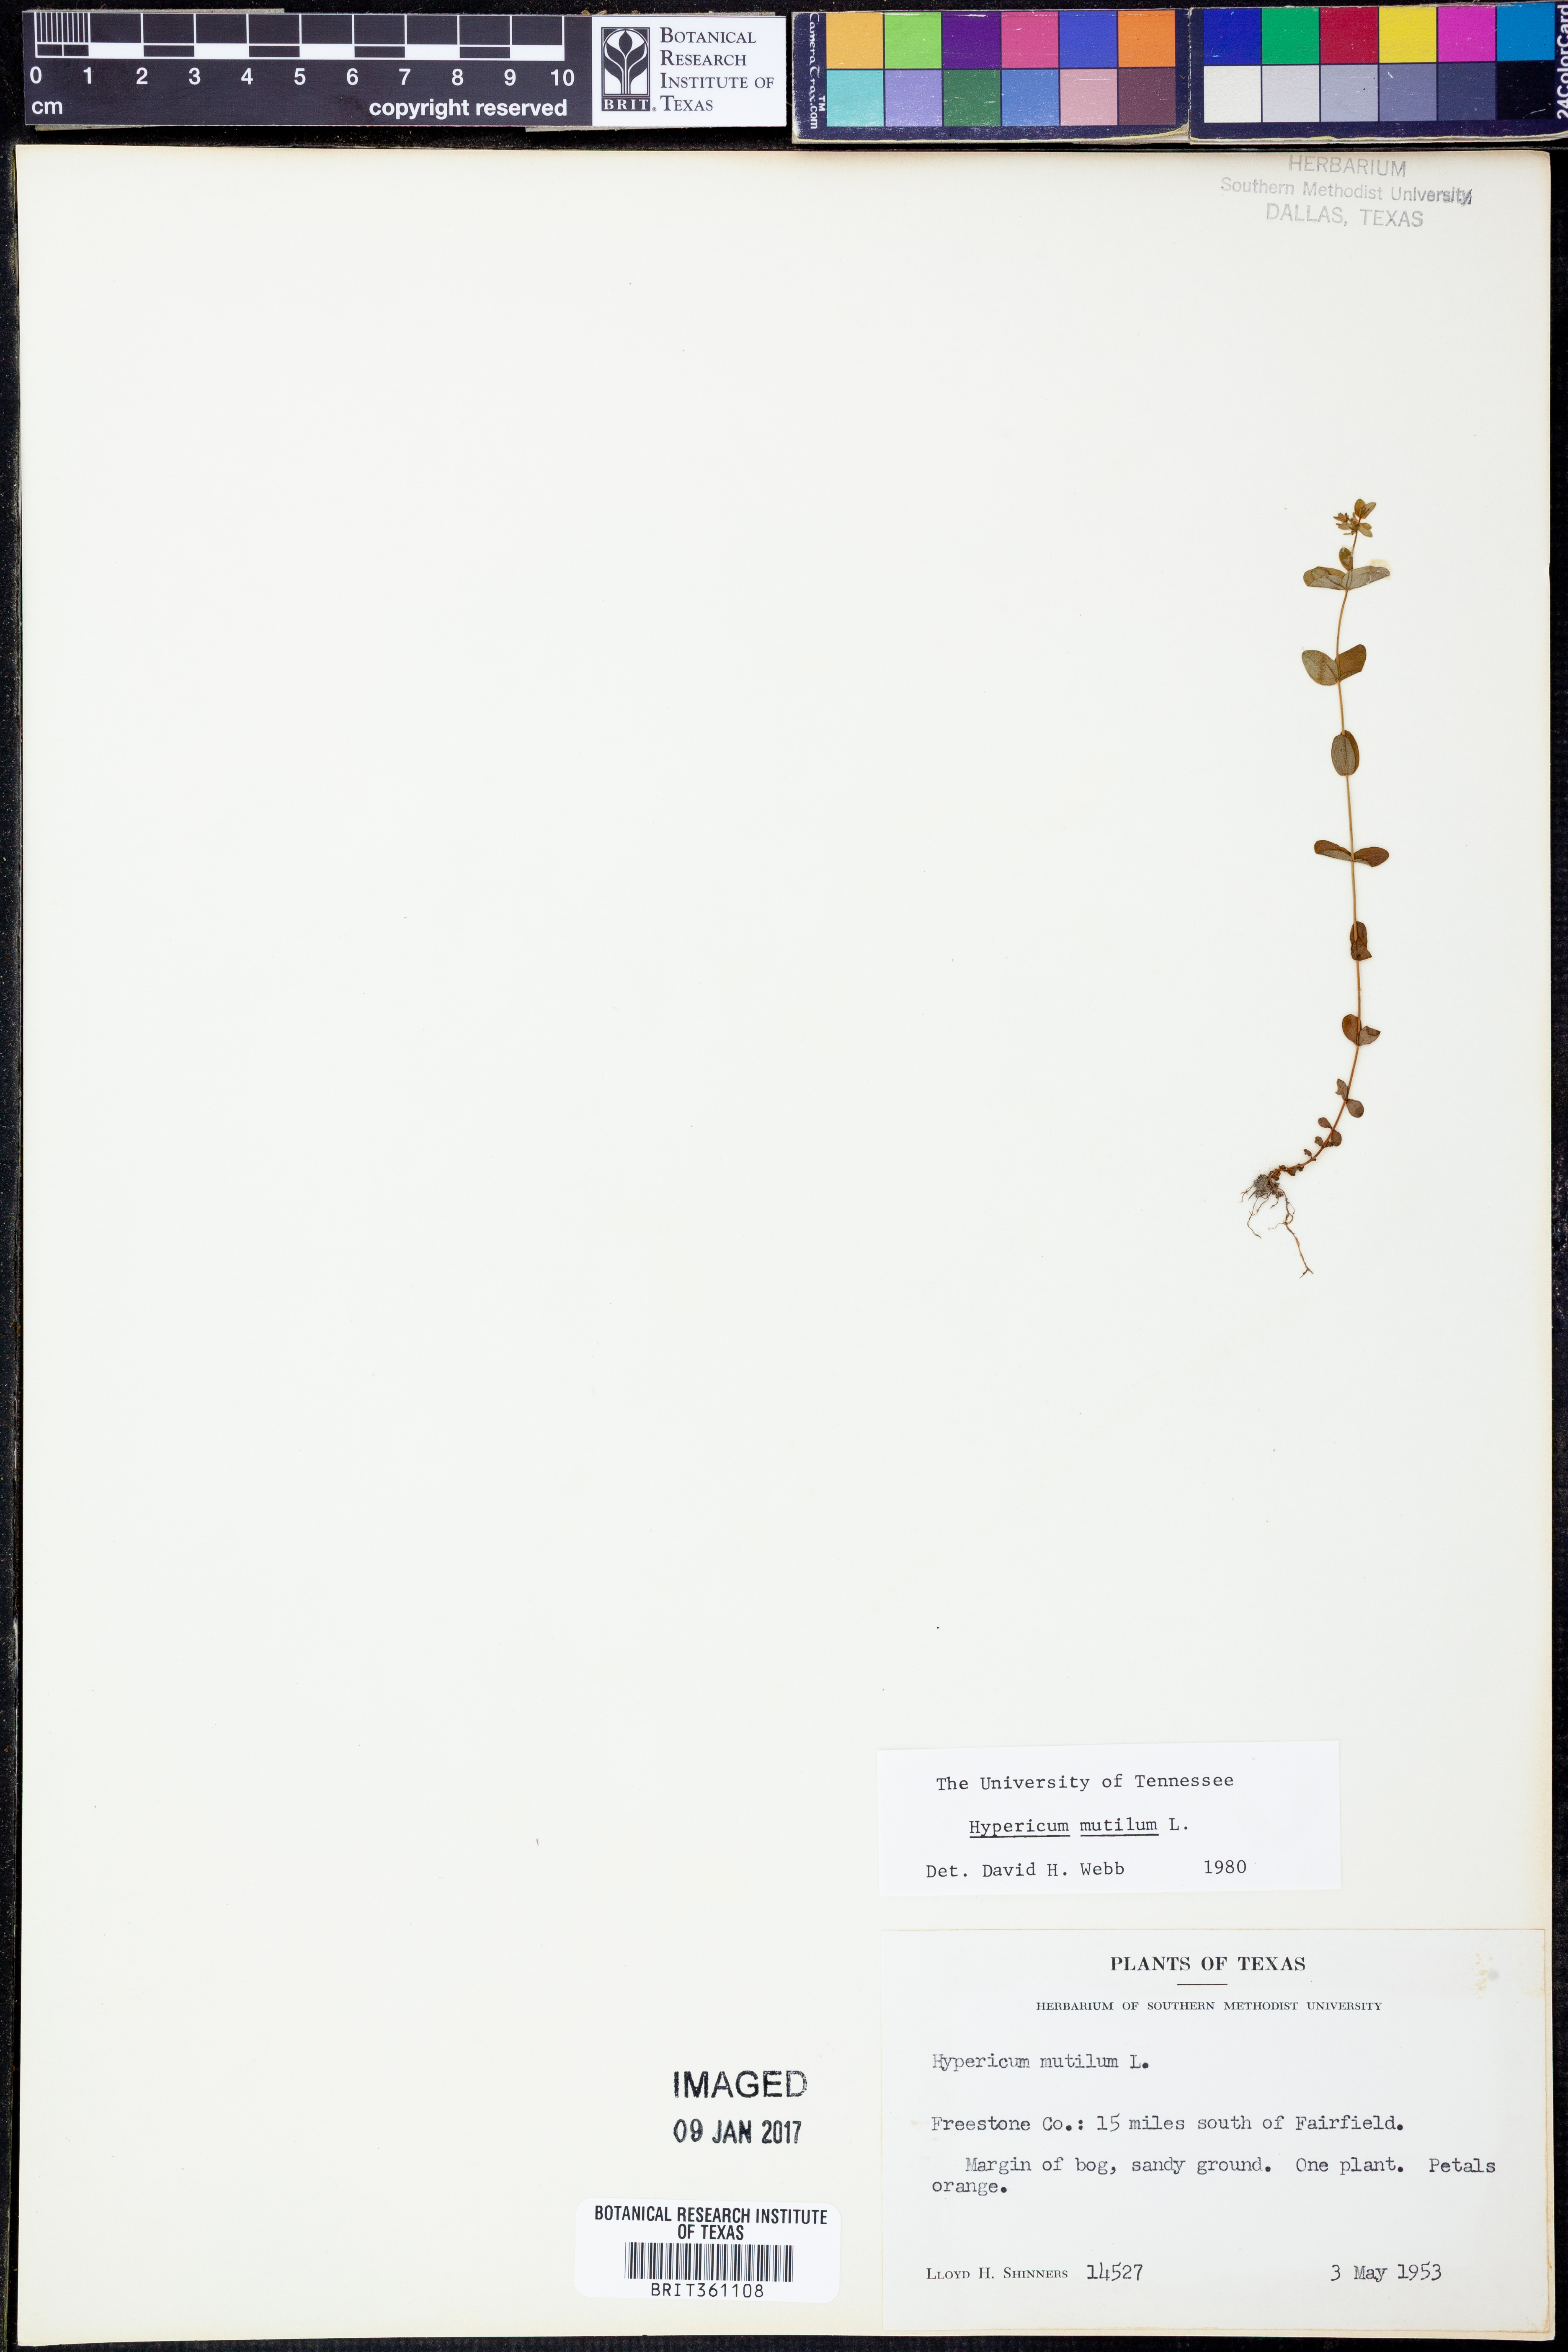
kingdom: Plantae
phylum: Tracheophyta
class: Magnoliopsida
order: Malpighiales
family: Hypericaceae
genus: Hypericum
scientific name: Hypericum mutilum
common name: Dwarf st. john's-wort
